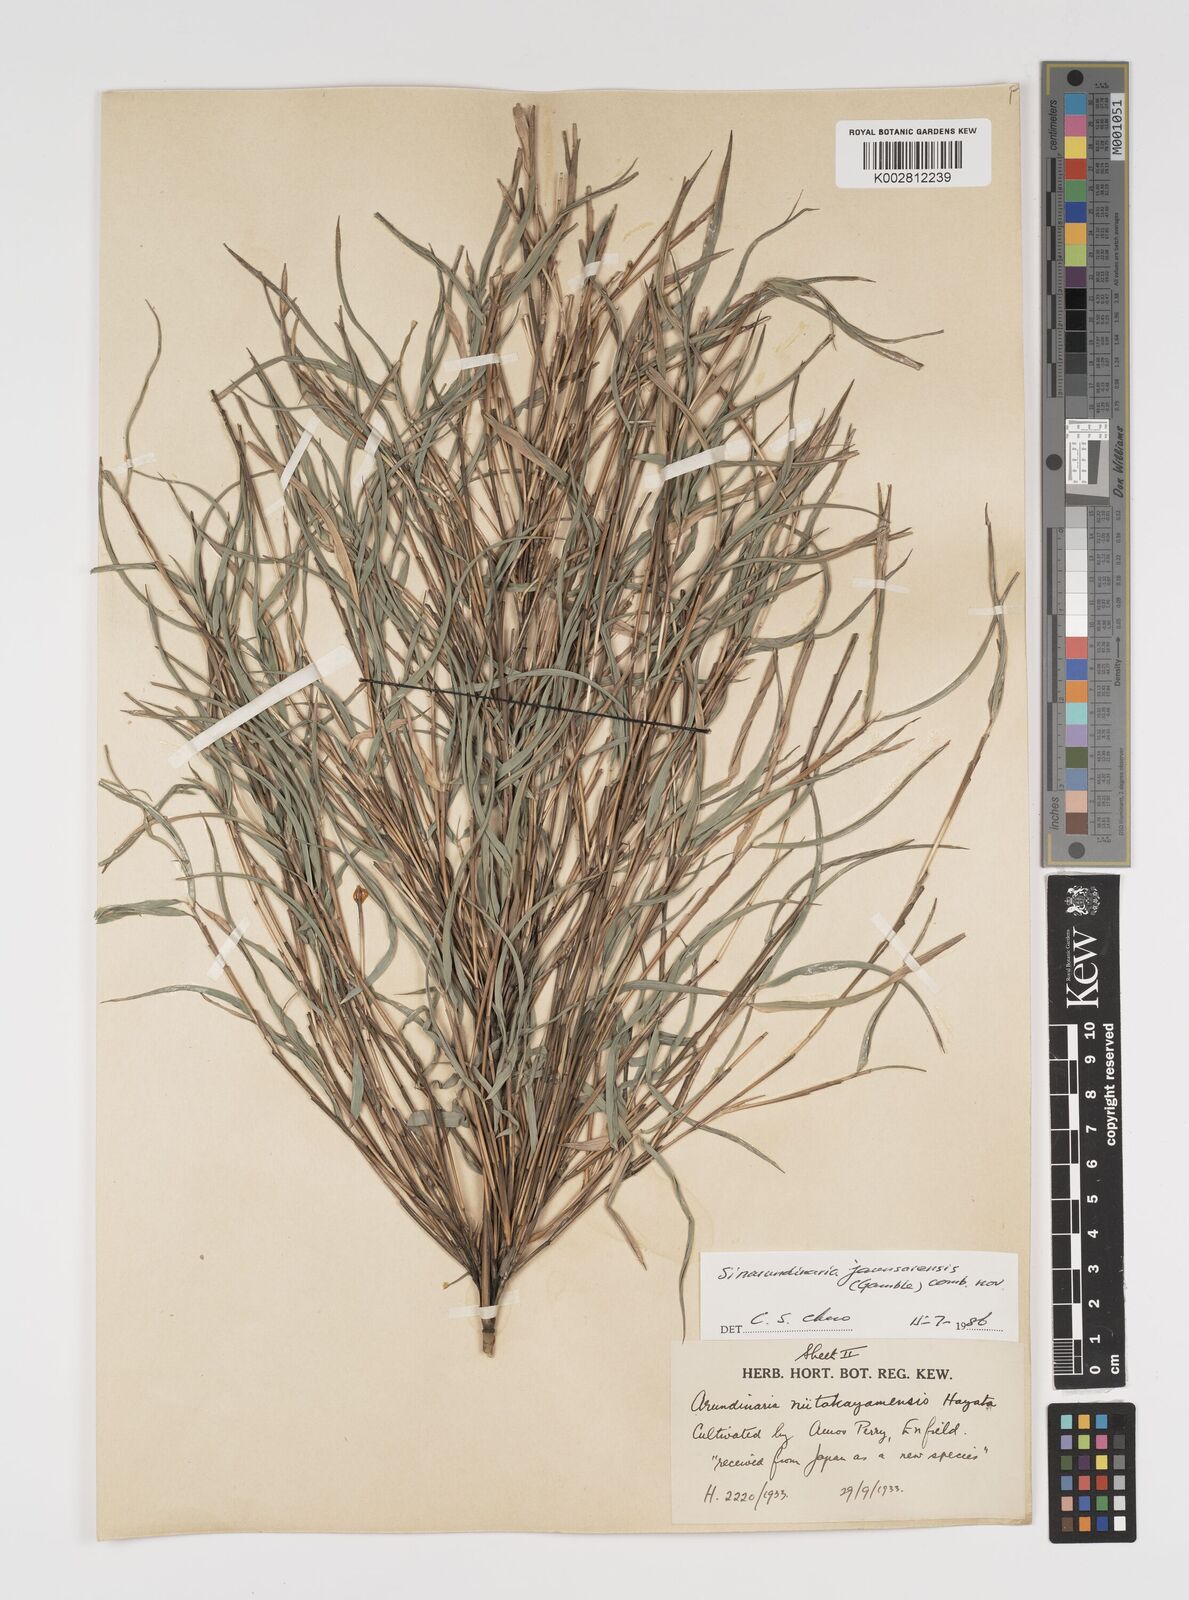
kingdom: Plantae
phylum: Tracheophyta
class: Liliopsida
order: Poales
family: Poaceae
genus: Yushania
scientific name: Yushania anceps
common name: Indian fountain-bamboo
